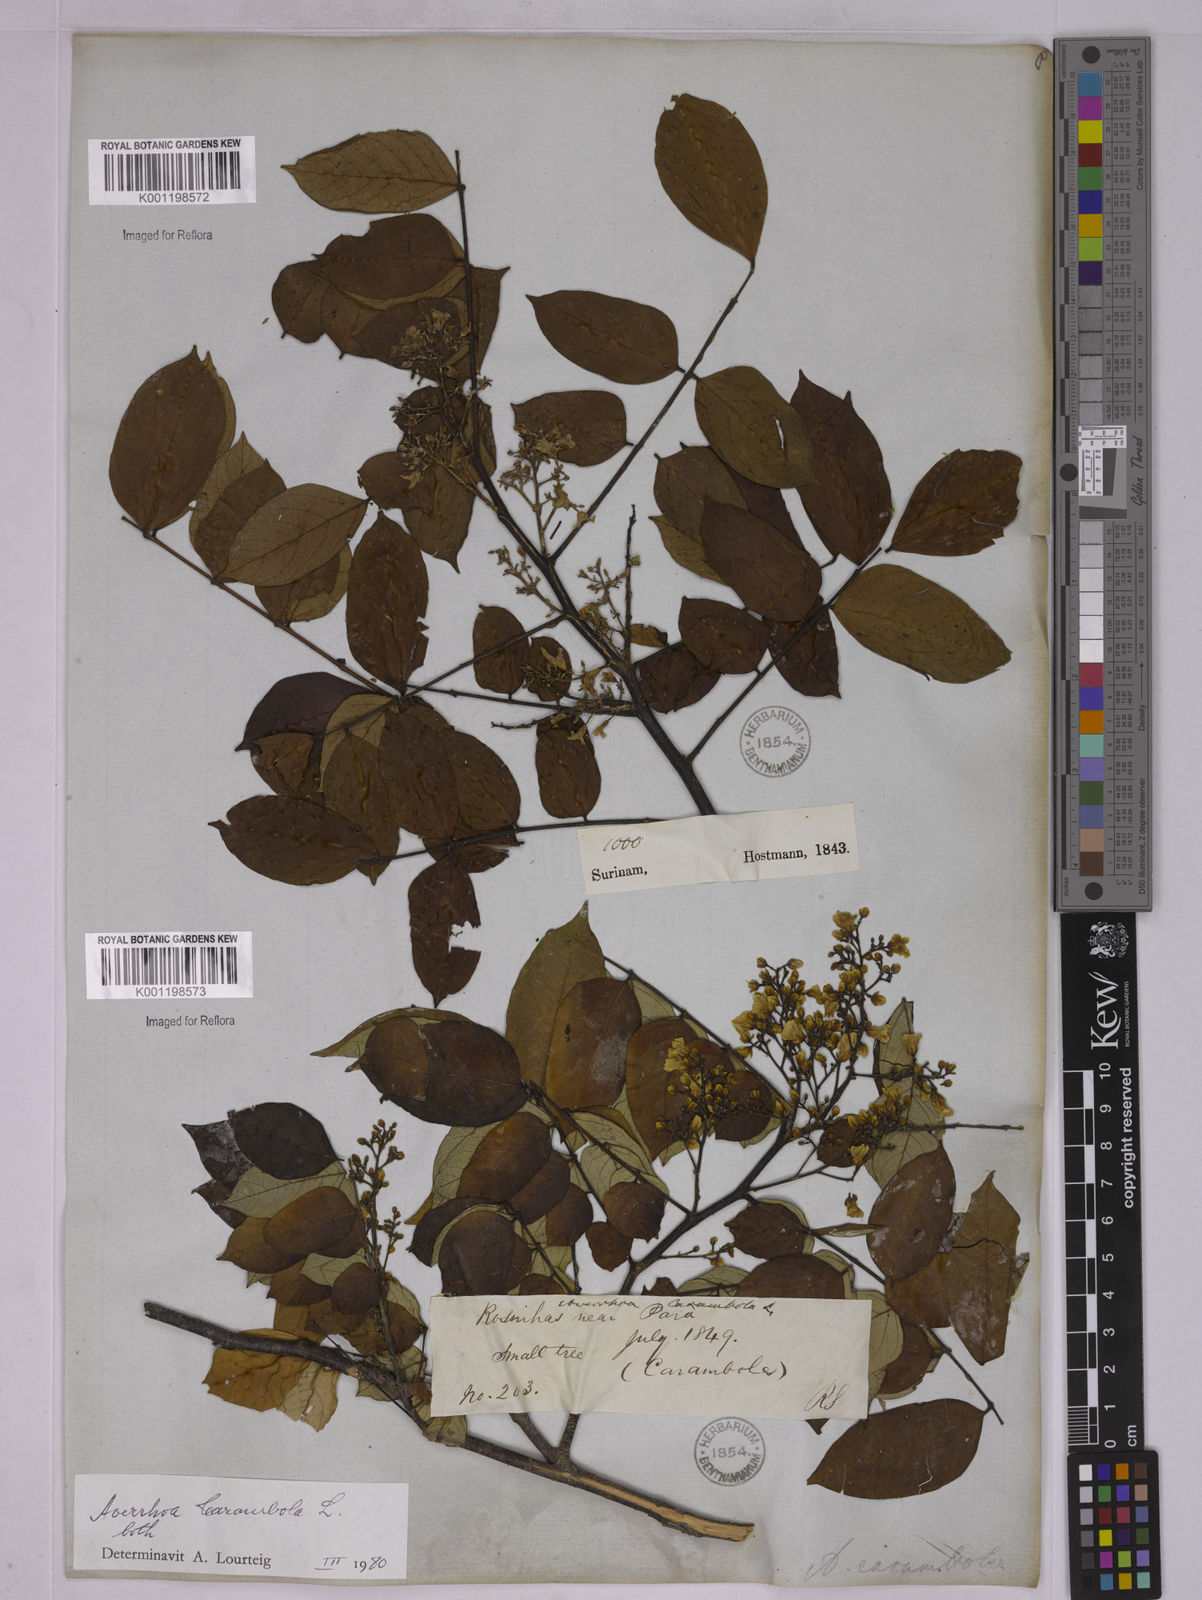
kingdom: Plantae
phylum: Tracheophyta
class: Magnoliopsida
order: Oxalidales
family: Oxalidaceae
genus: Averrhoa
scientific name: Averrhoa bilimbi
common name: Bilimbi
